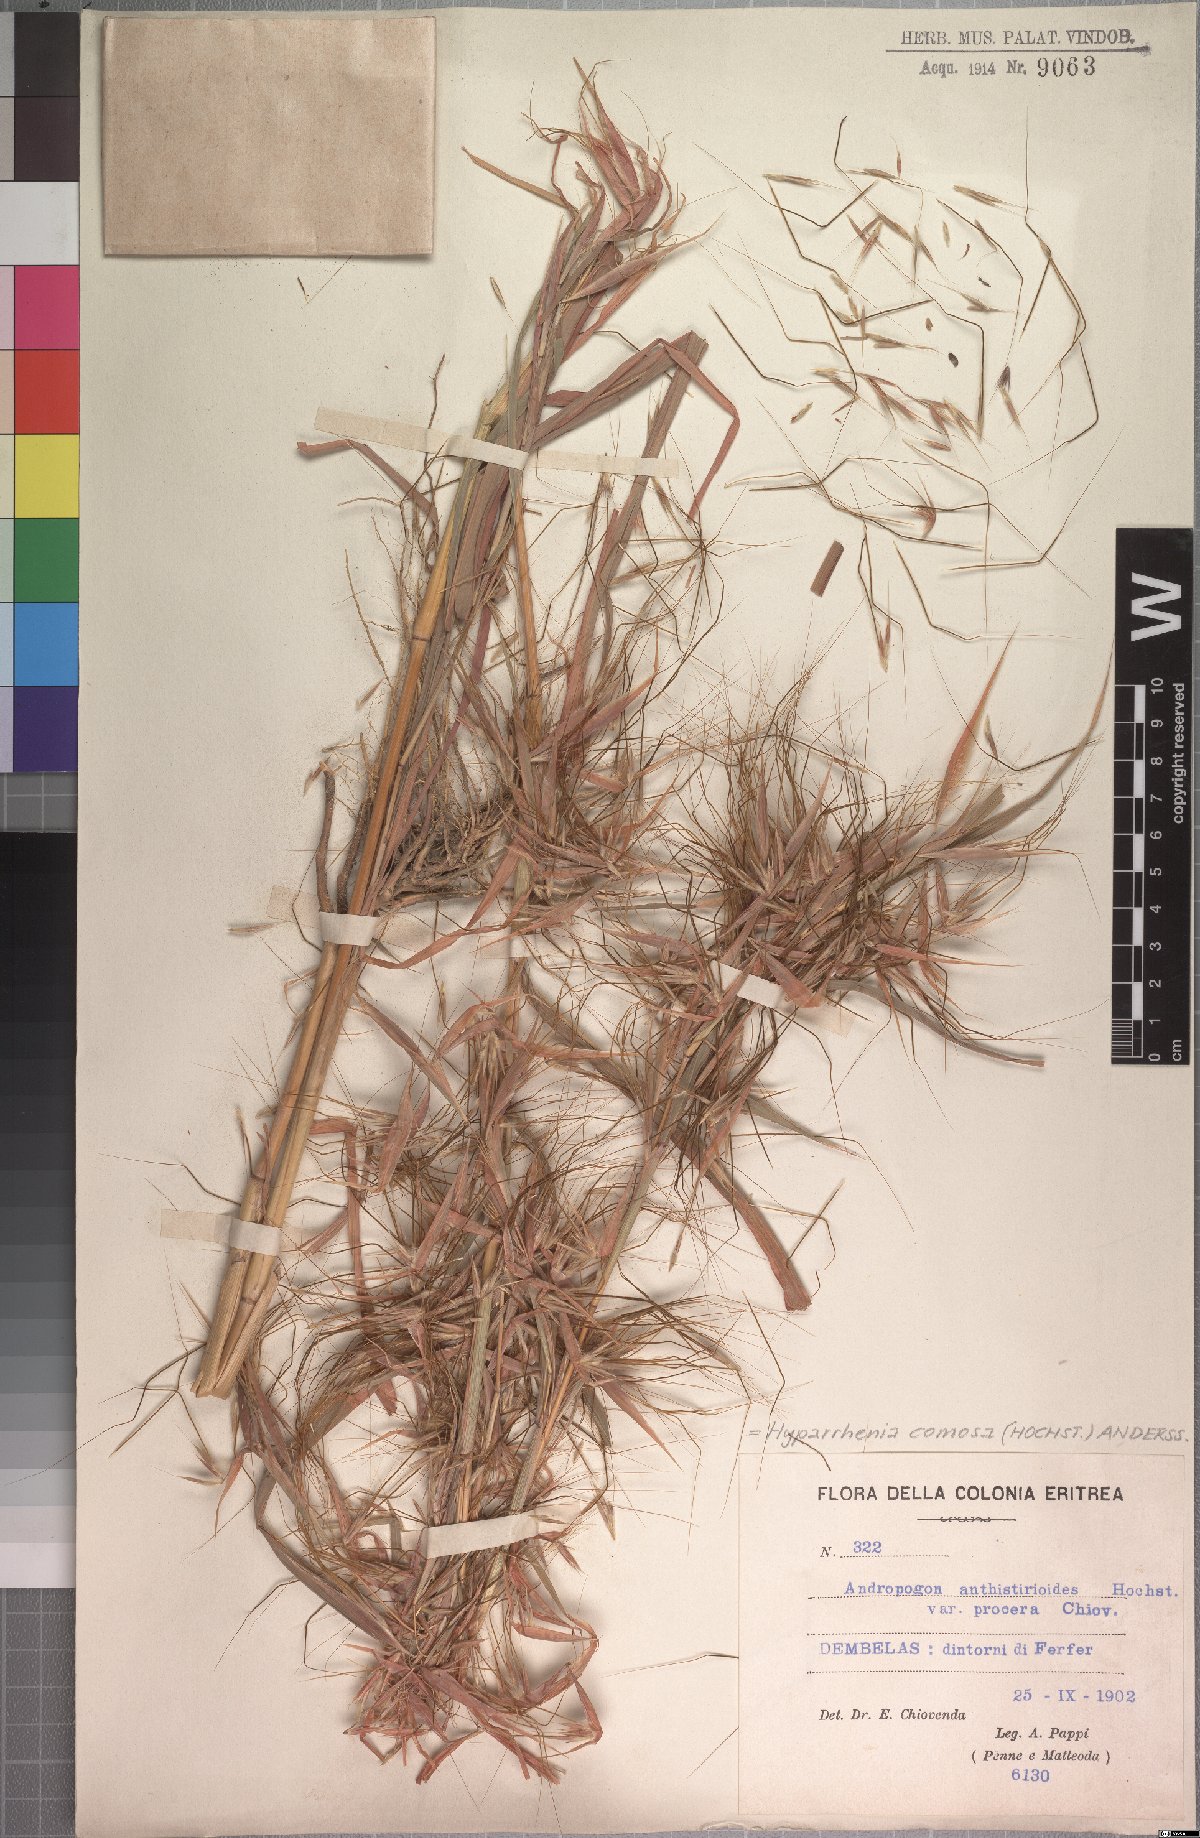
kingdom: Plantae
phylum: Tracheophyta
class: Liliopsida
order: Poales
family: Poaceae
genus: Hyparrhenia
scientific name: Hyparrhenia coleotricha
